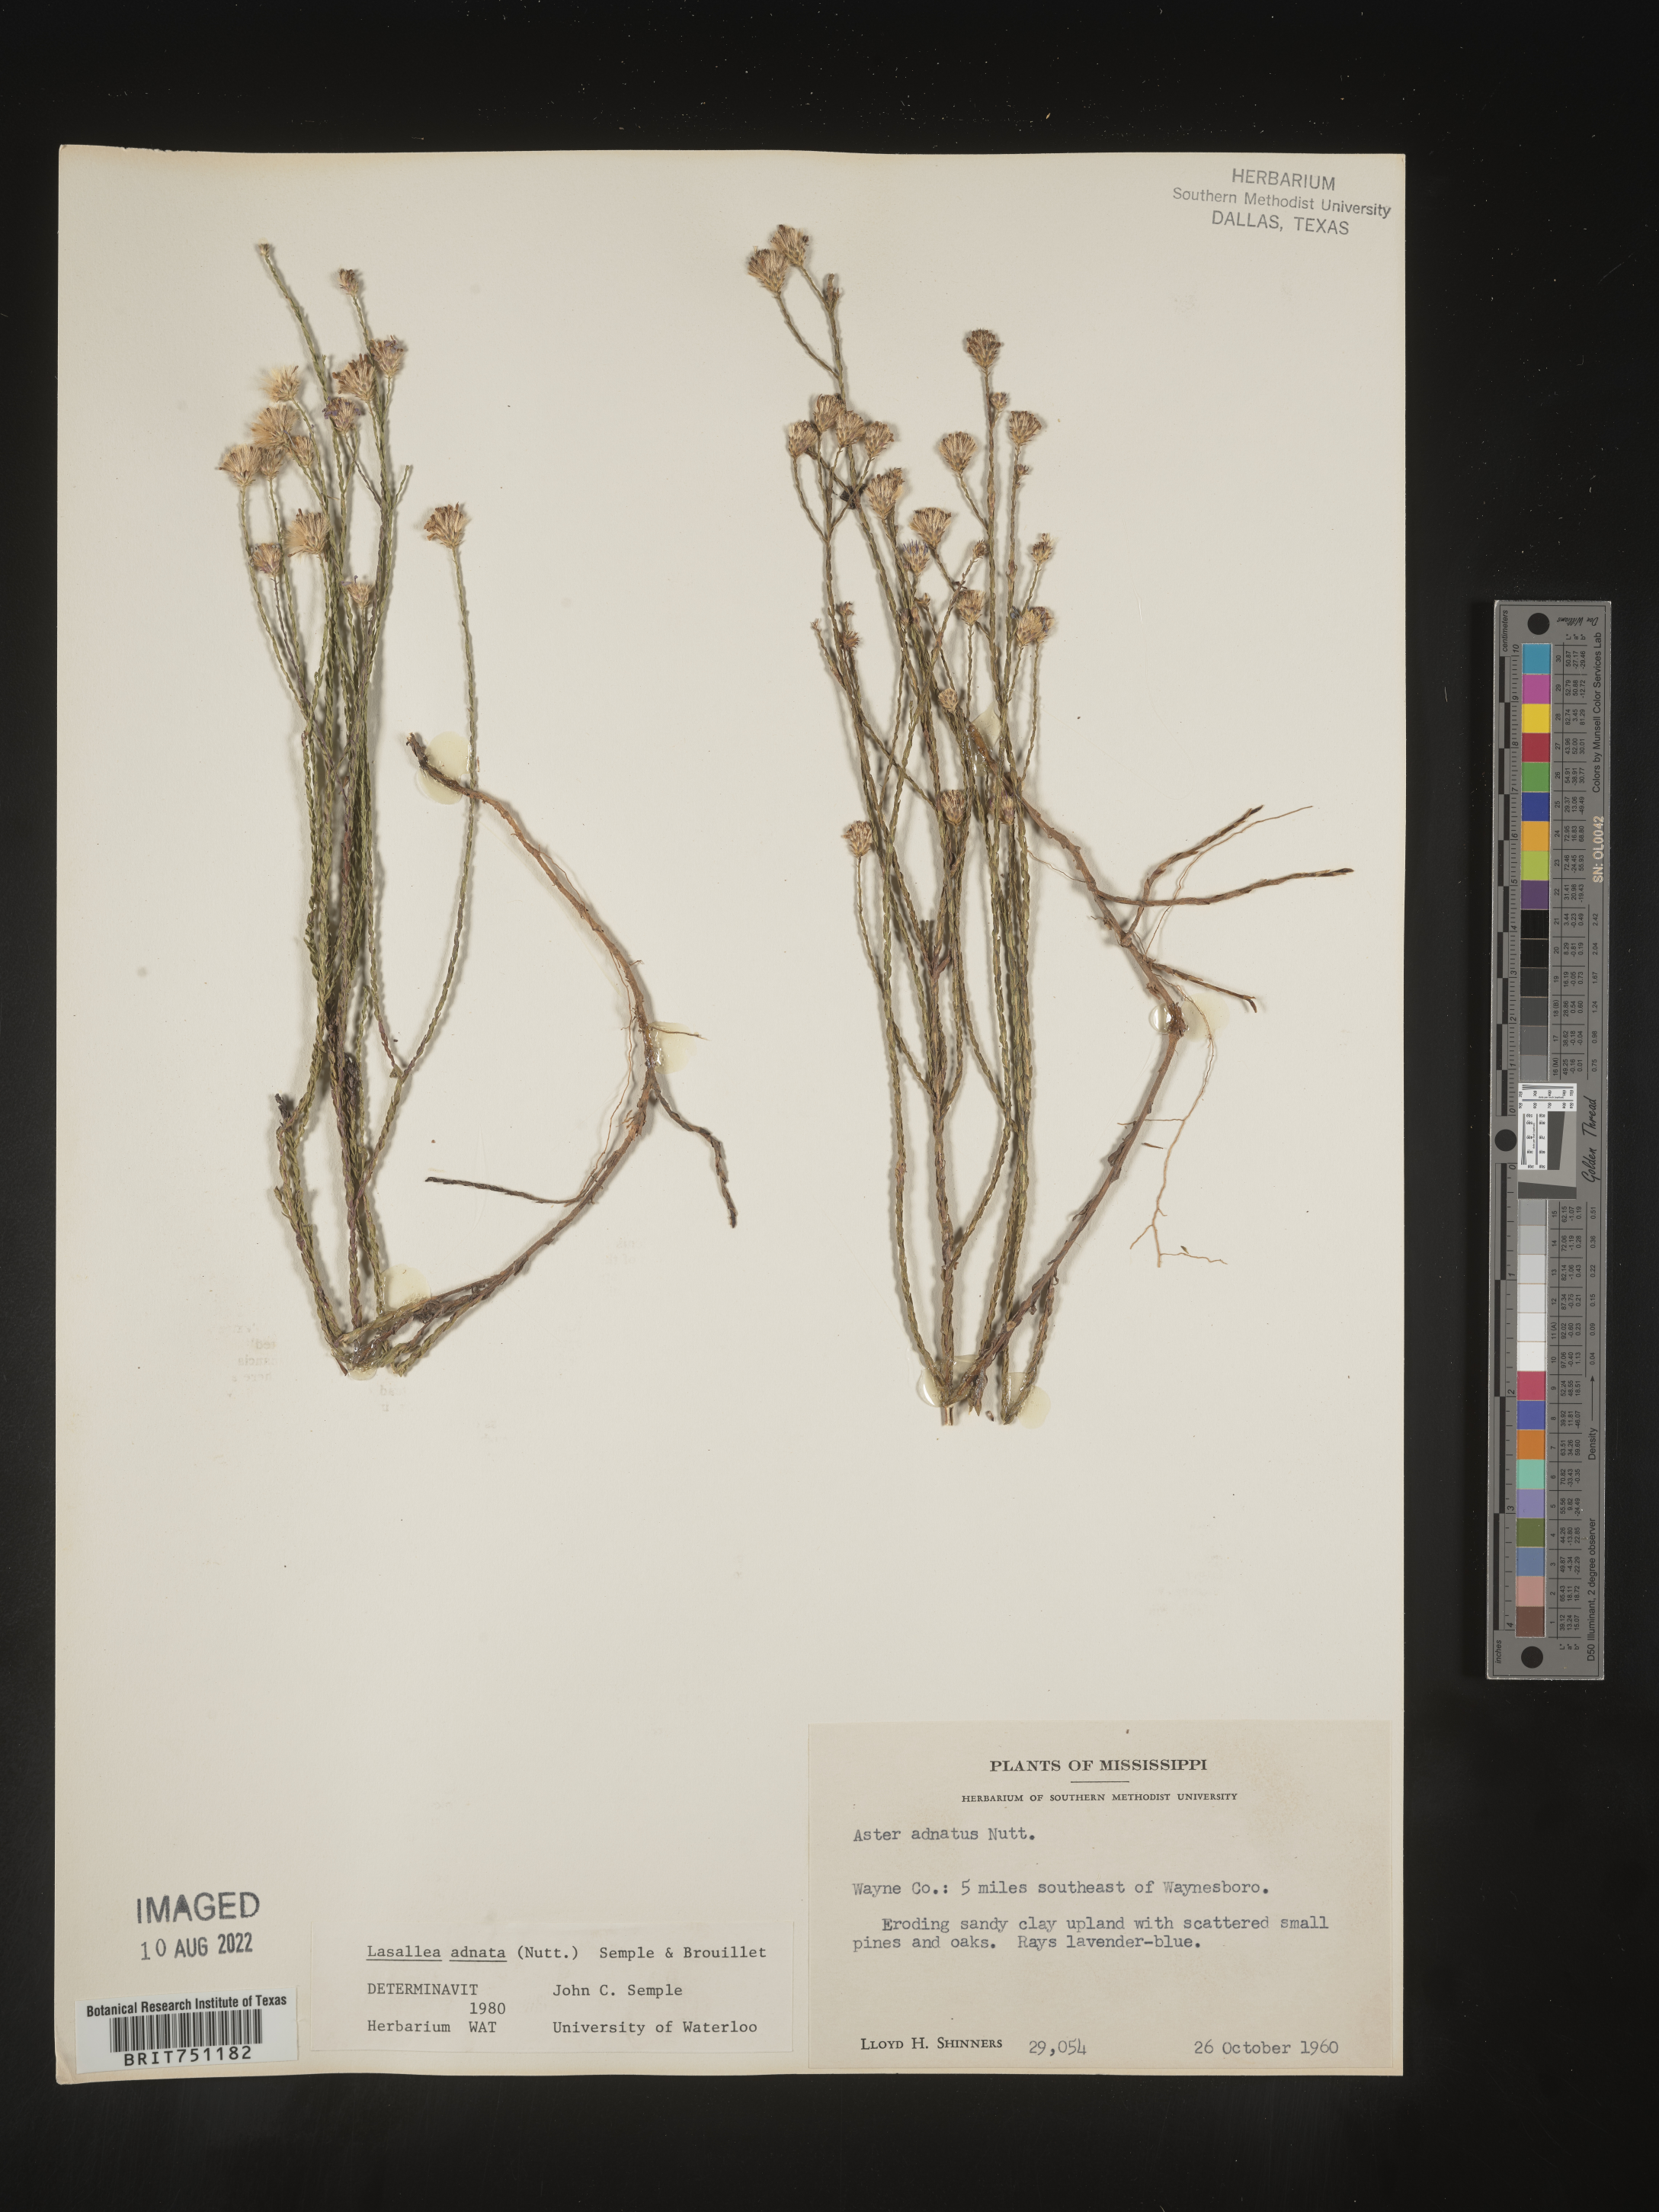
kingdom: Plantae
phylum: Tracheophyta
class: Magnoliopsida
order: Asterales
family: Asteraceae
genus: Symphyotrichum
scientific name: Symphyotrichum adnatum
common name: Scale-leaf aster
